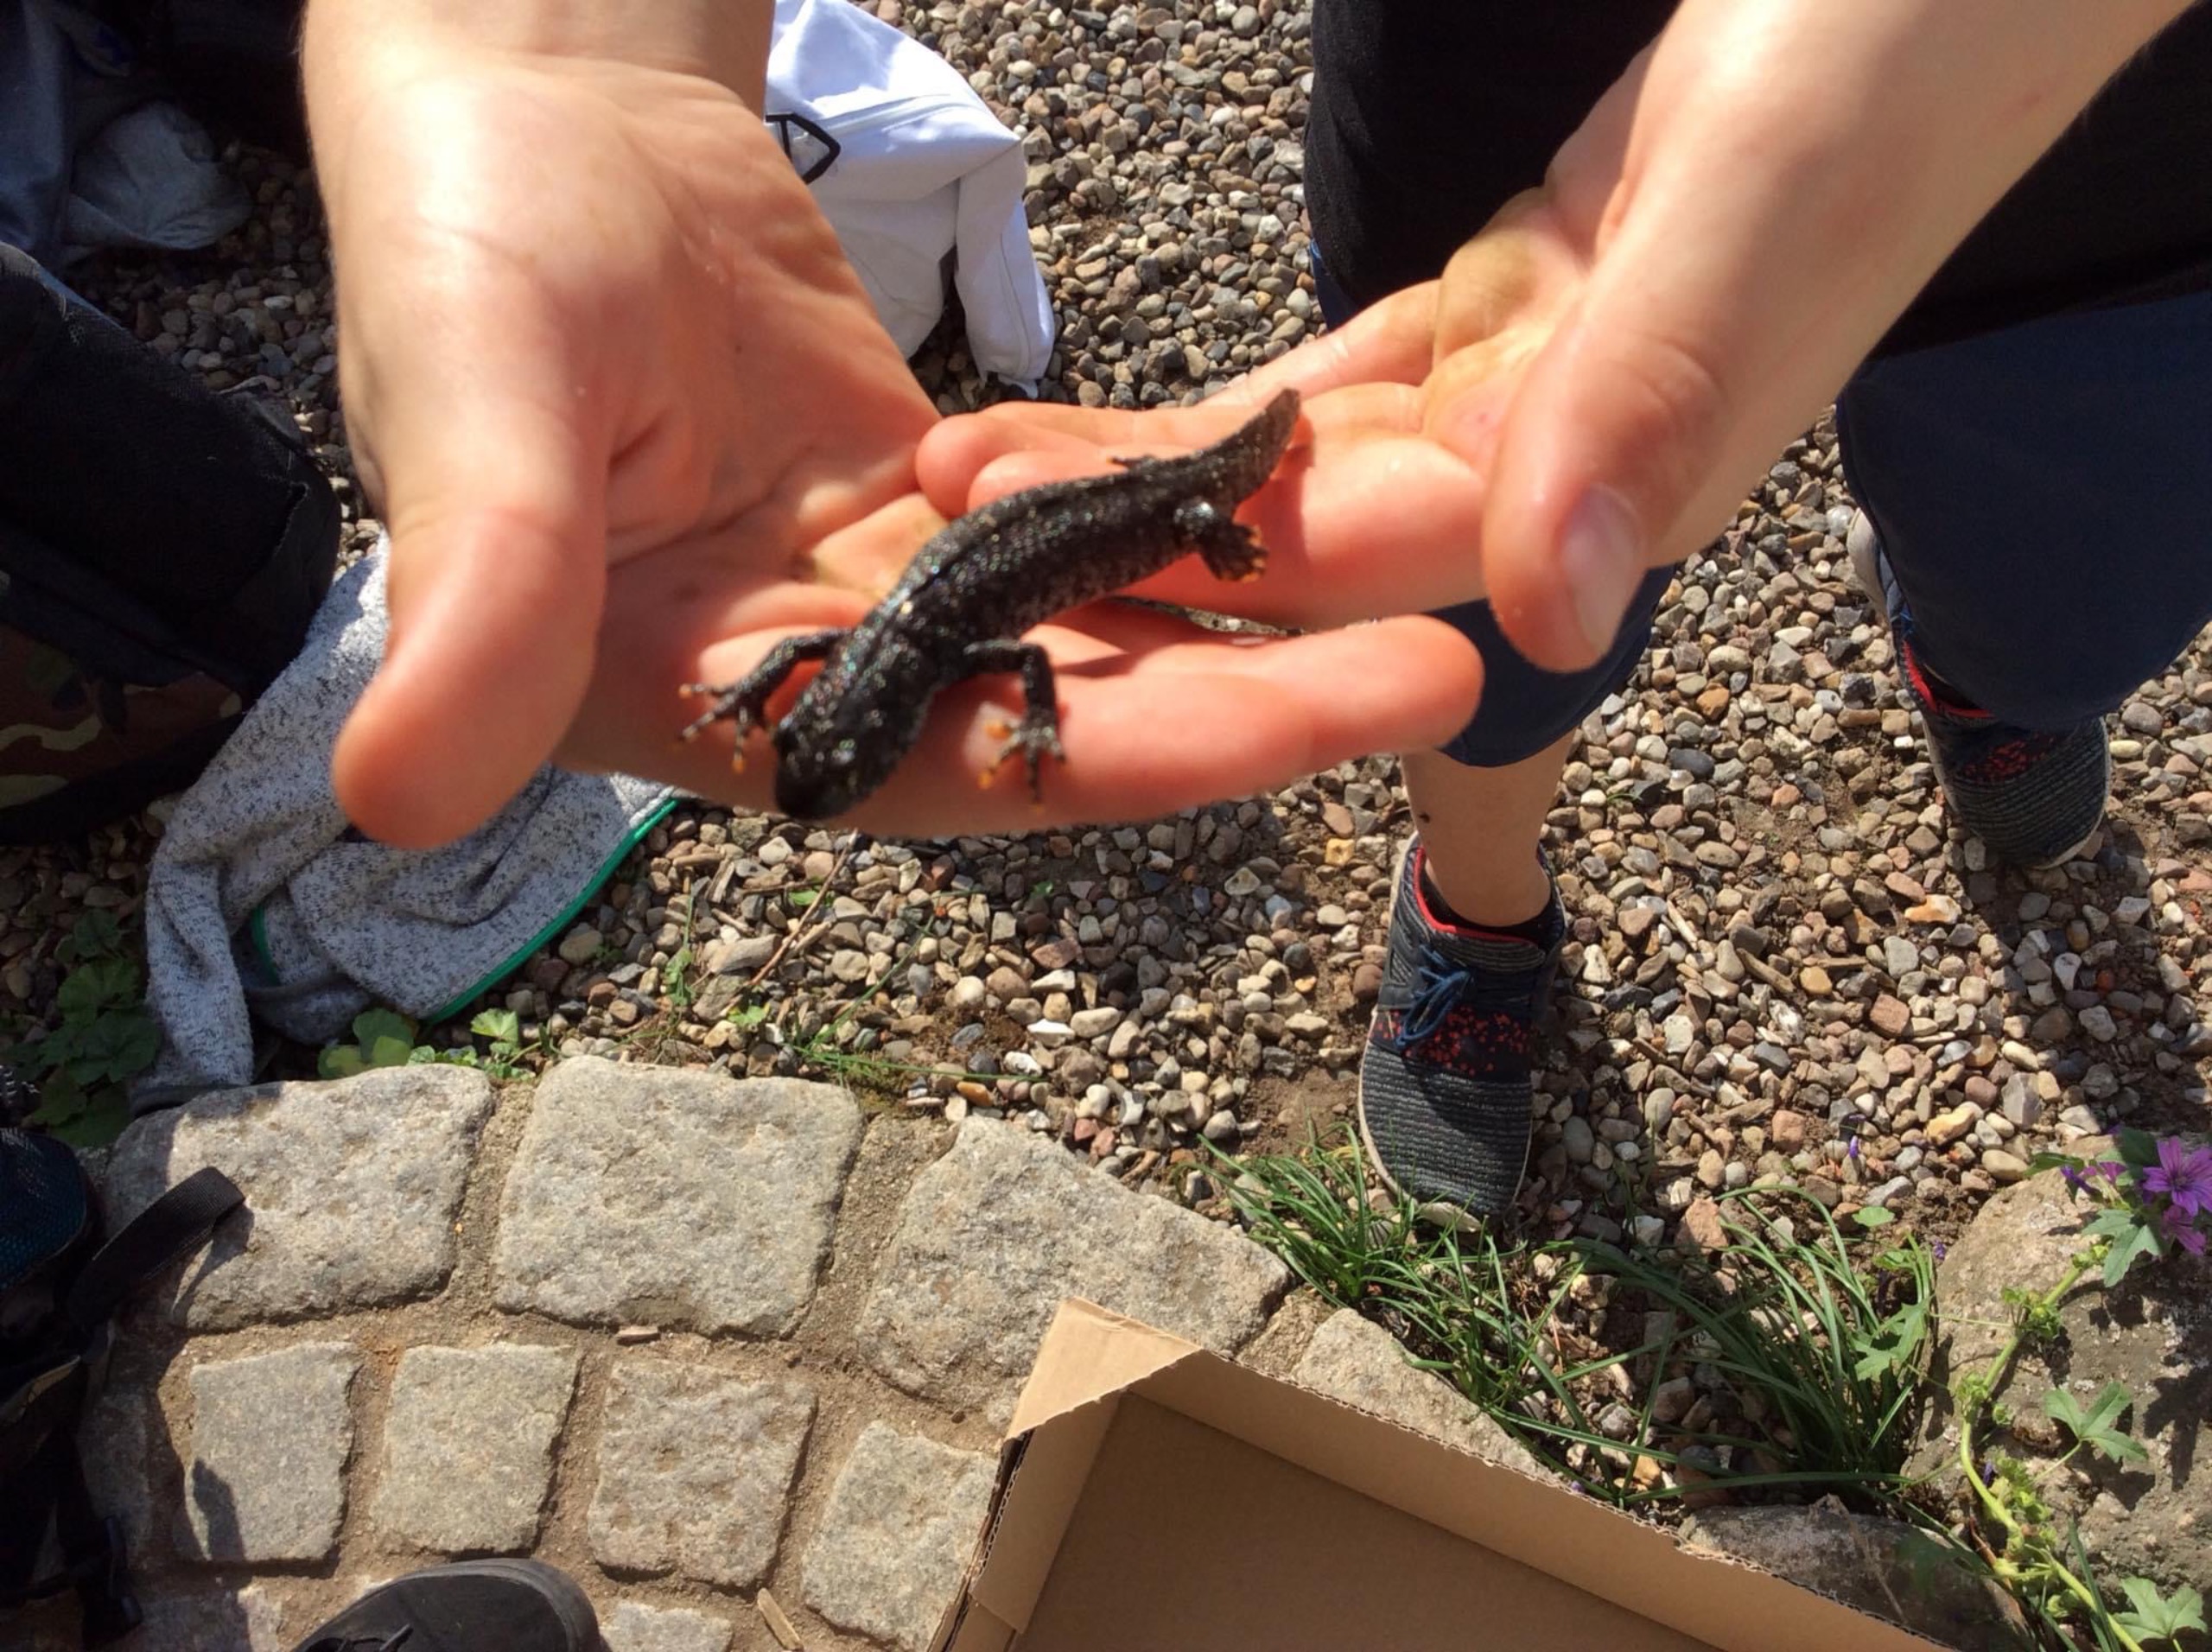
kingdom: Animalia
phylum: Chordata
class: Amphibia
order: Caudata
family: Salamandridae
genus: Triturus
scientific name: Triturus cristatus
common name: Stor vandsalamander
